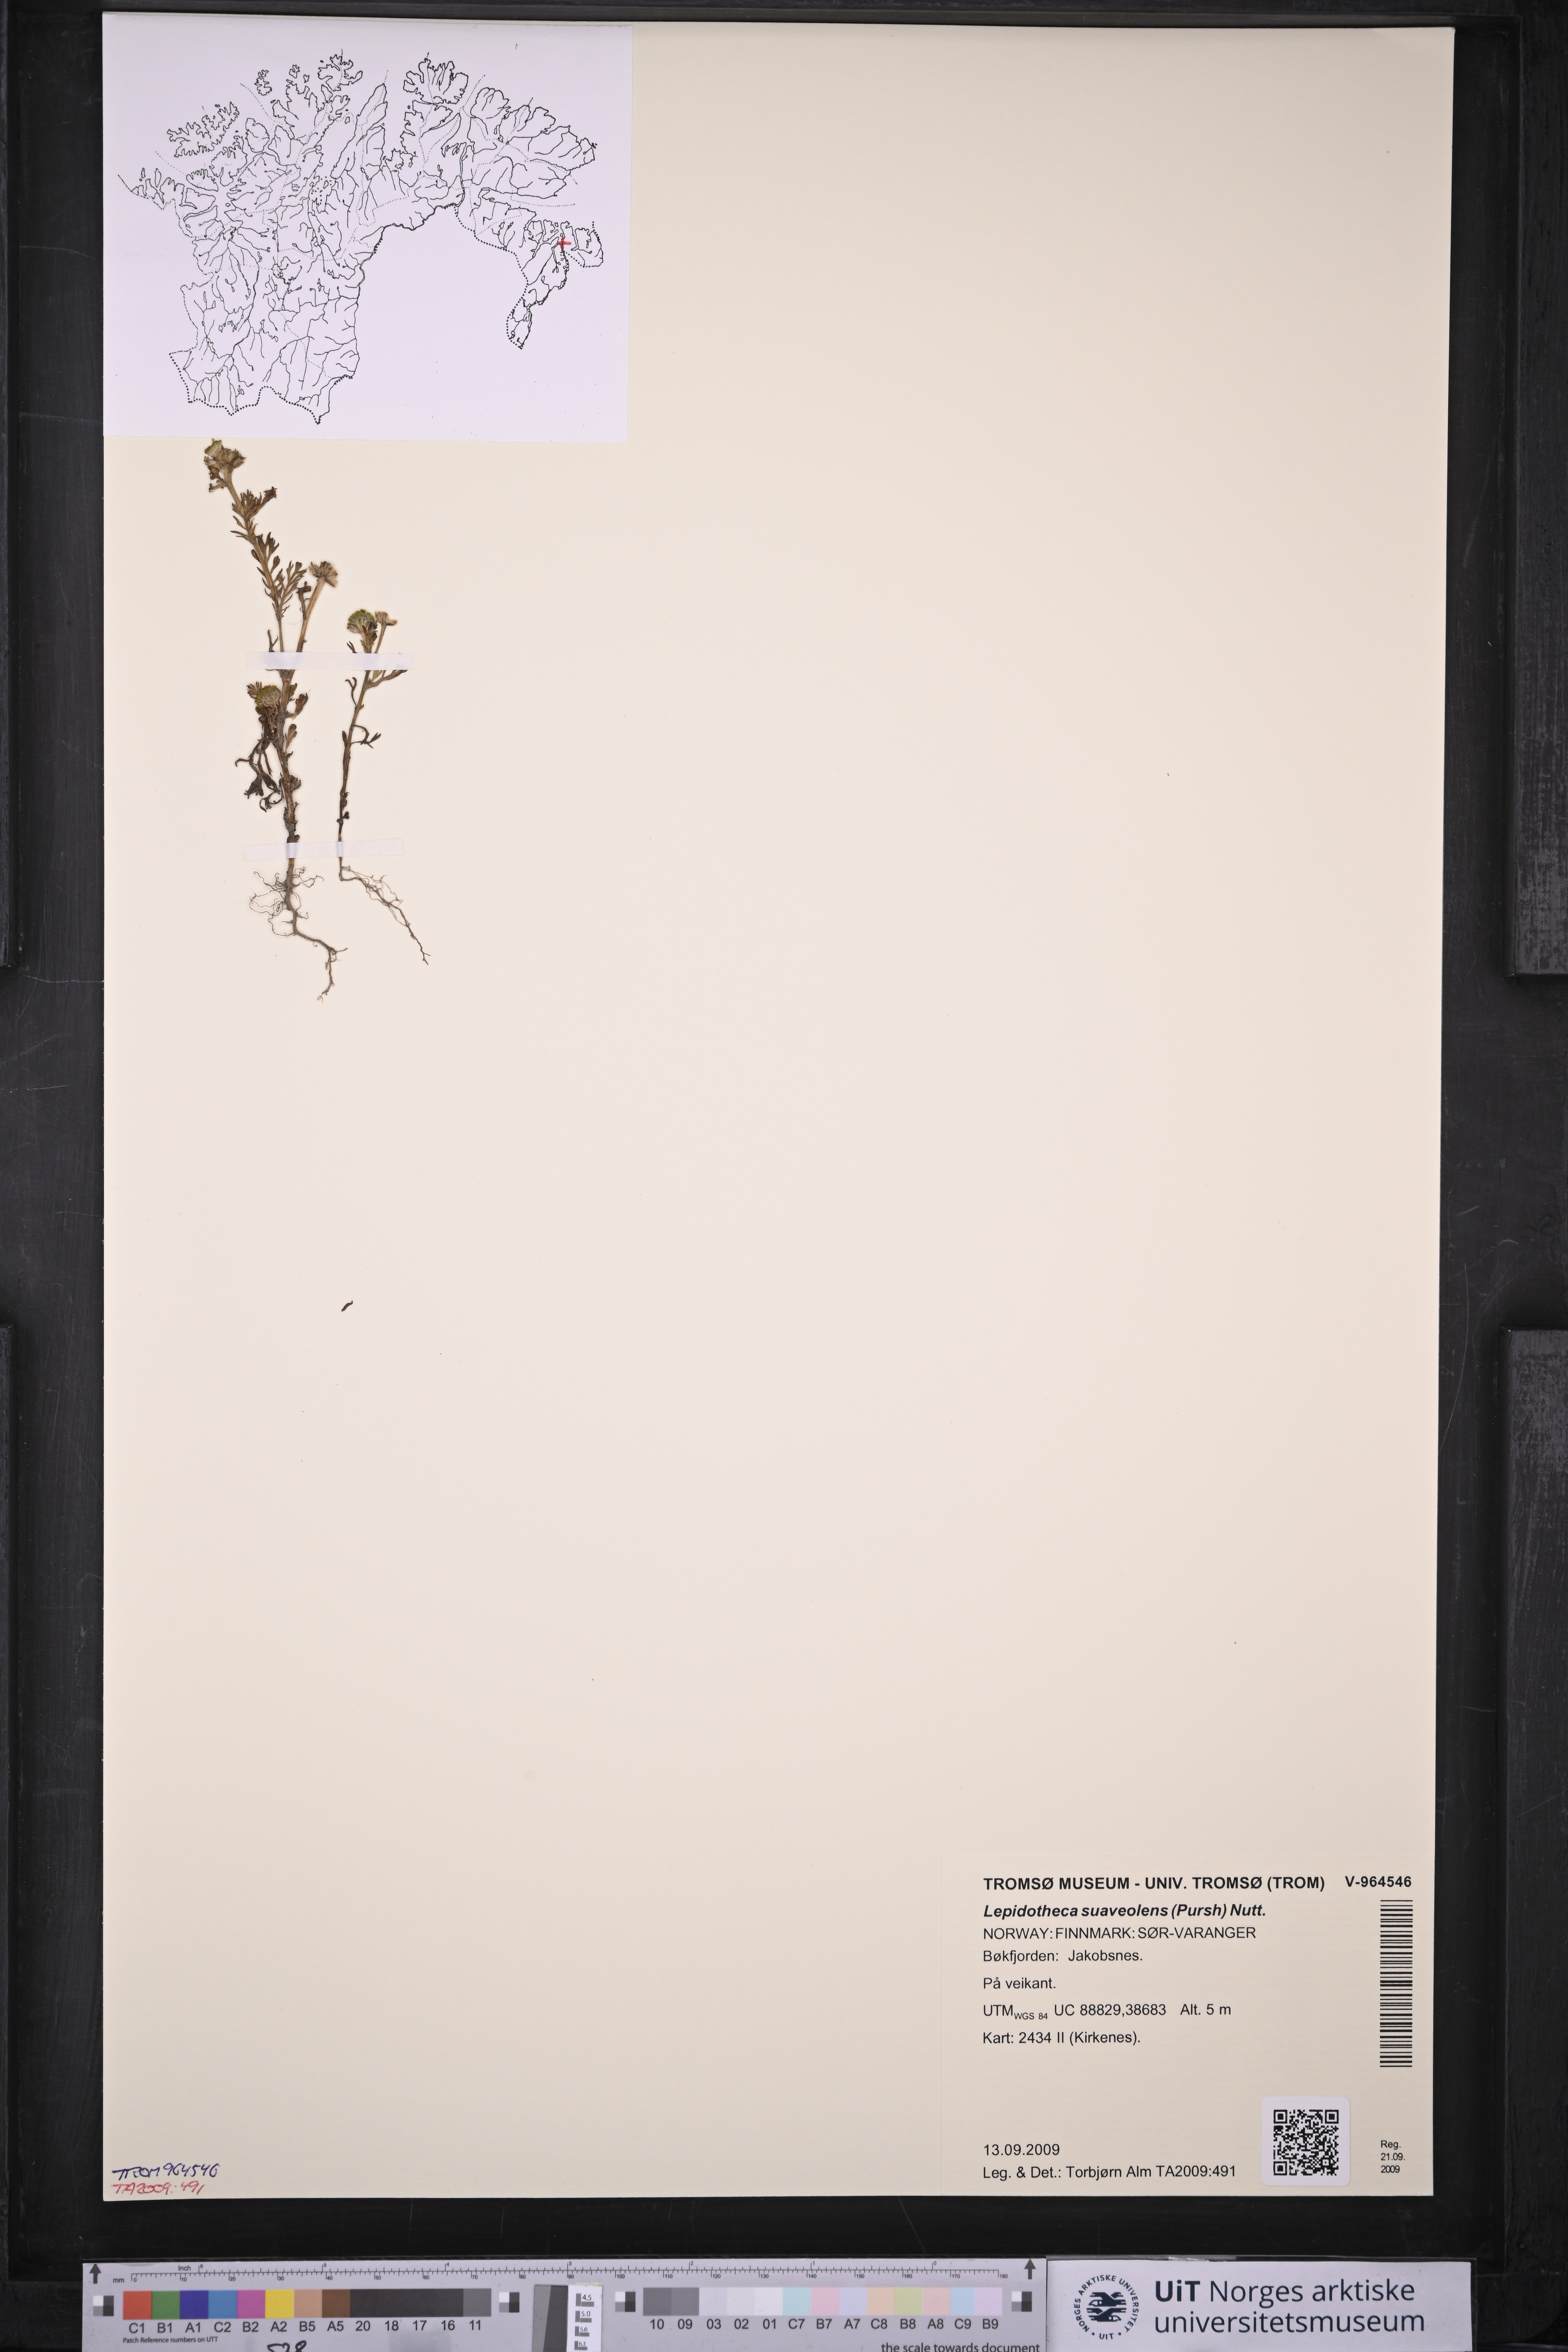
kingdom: Plantae
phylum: Tracheophyta
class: Magnoliopsida
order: Asterales
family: Asteraceae
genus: Matricaria
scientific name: Matricaria discoidea
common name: Disc mayweed
